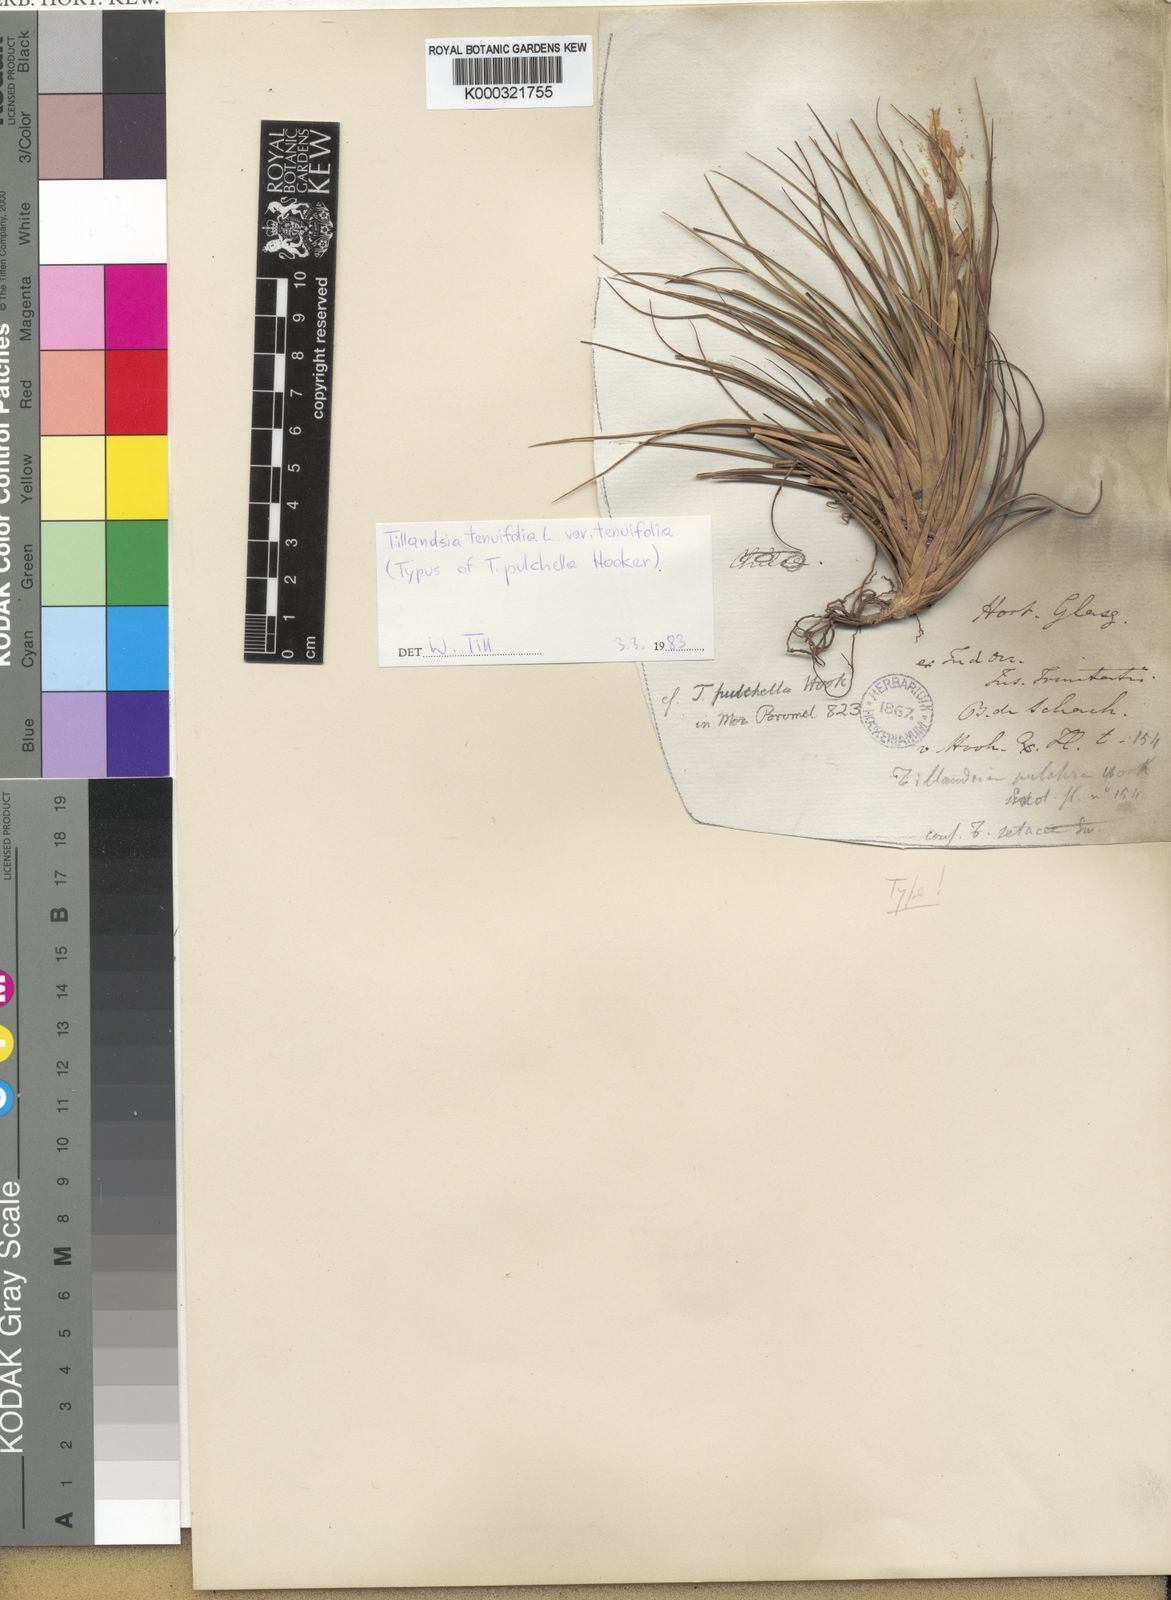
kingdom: Plantae
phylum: Tracheophyta
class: Liliopsida
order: Poales
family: Bromeliaceae
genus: Tillandsia
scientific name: Tillandsia tenuifolia
